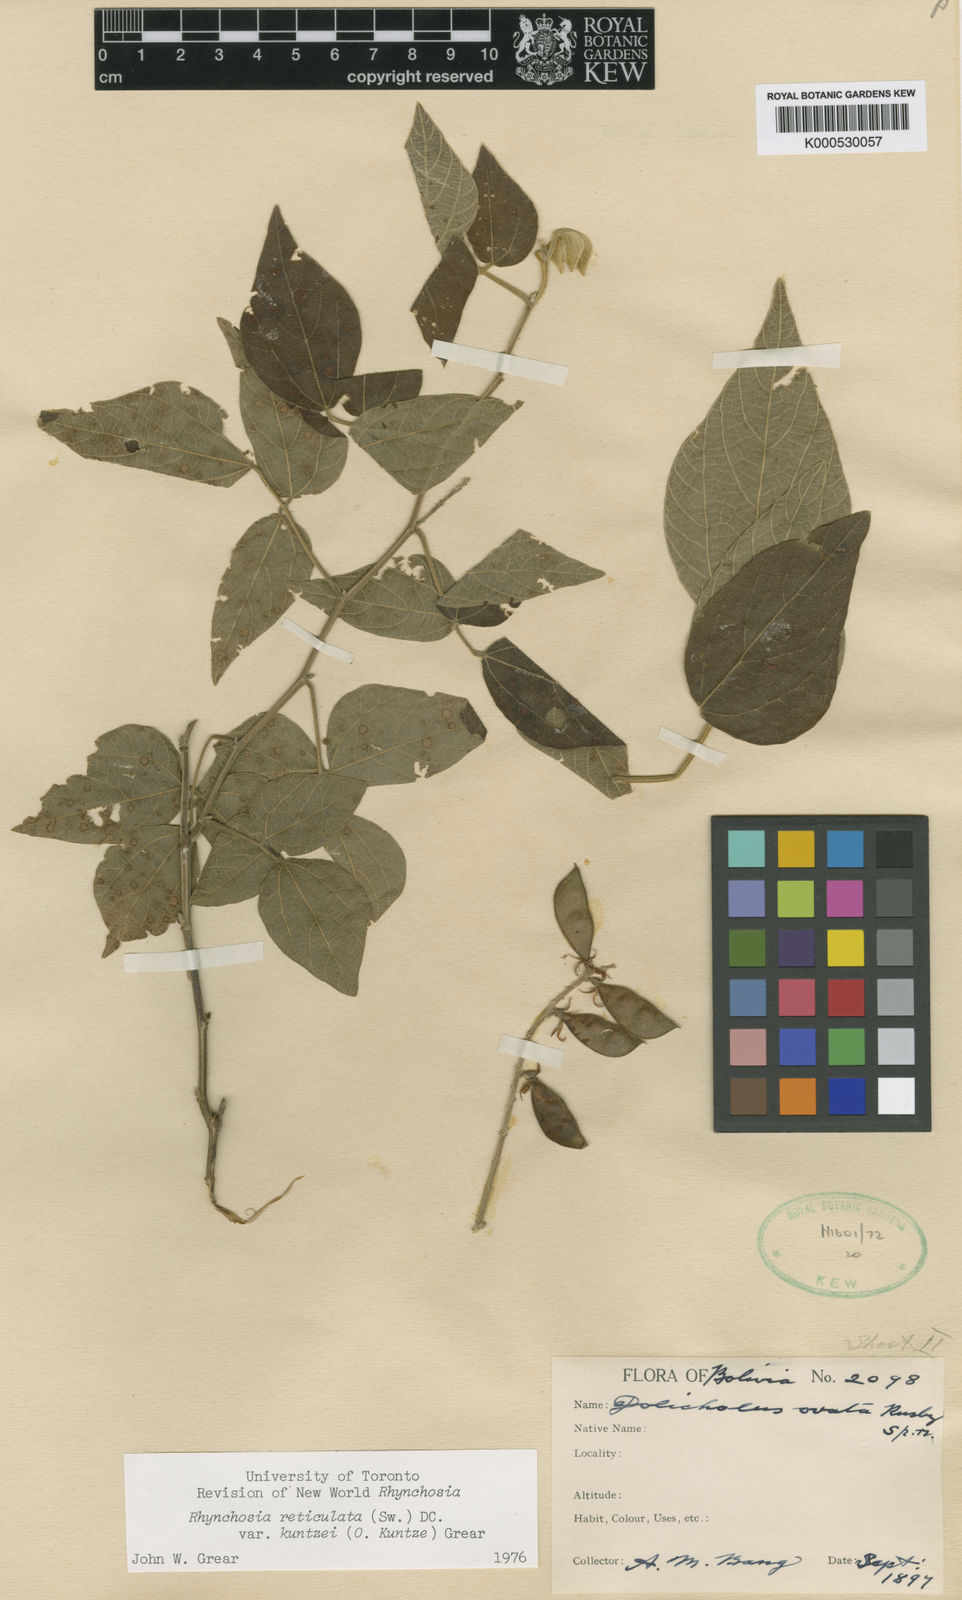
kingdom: Plantae
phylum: Tracheophyta
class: Magnoliopsida
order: Fabales
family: Fabaceae
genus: Rhynchosia
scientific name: Rhynchosia reticulata
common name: Pea withe
